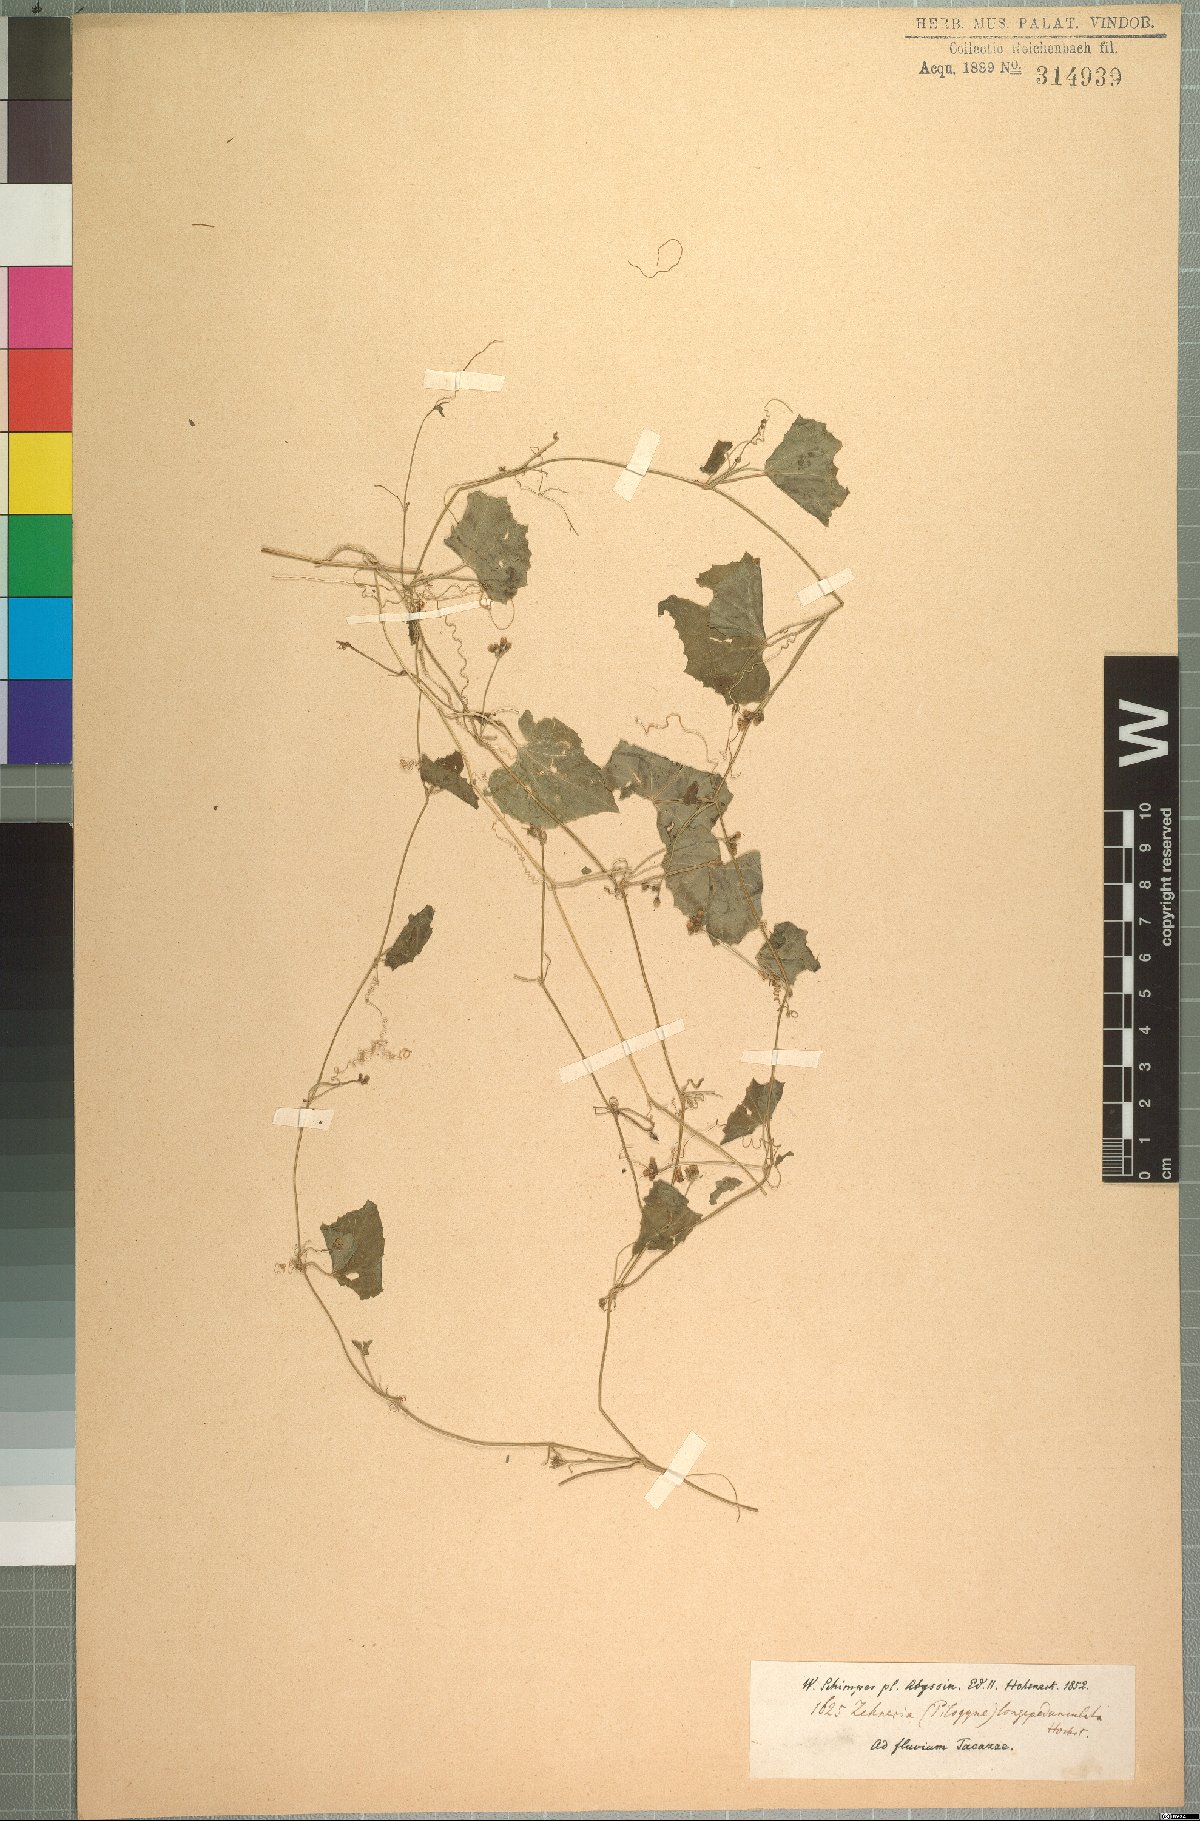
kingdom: Plantae
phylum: Tracheophyta
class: Magnoliopsida
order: Cucurbitales
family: Cucurbitaceae
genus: Zehneria
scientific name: Zehneria scabra
